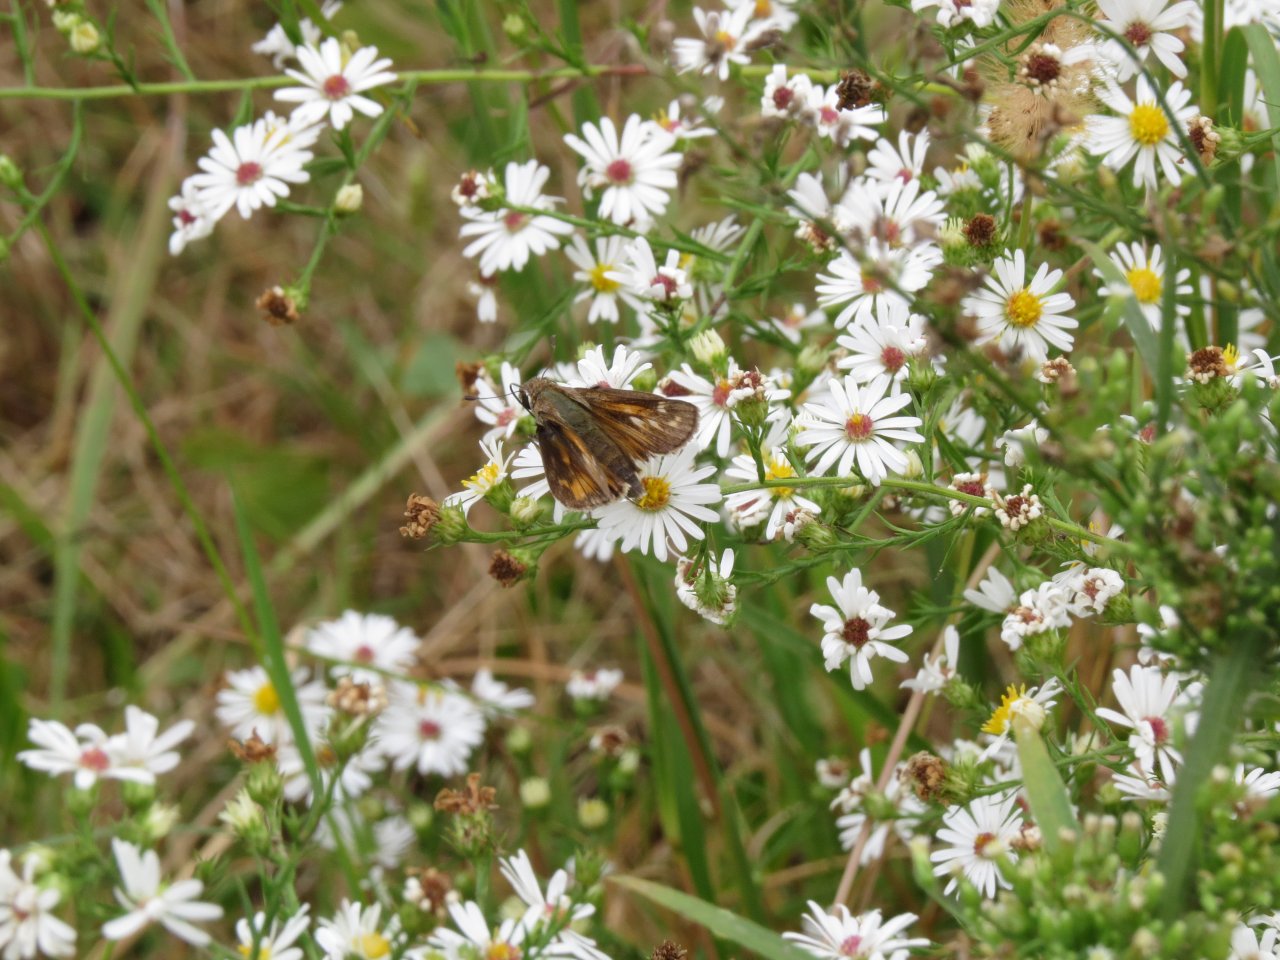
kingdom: Animalia
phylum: Arthropoda
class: Insecta
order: Lepidoptera
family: Hesperiidae
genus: Atalopedes
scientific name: Atalopedes campestris
